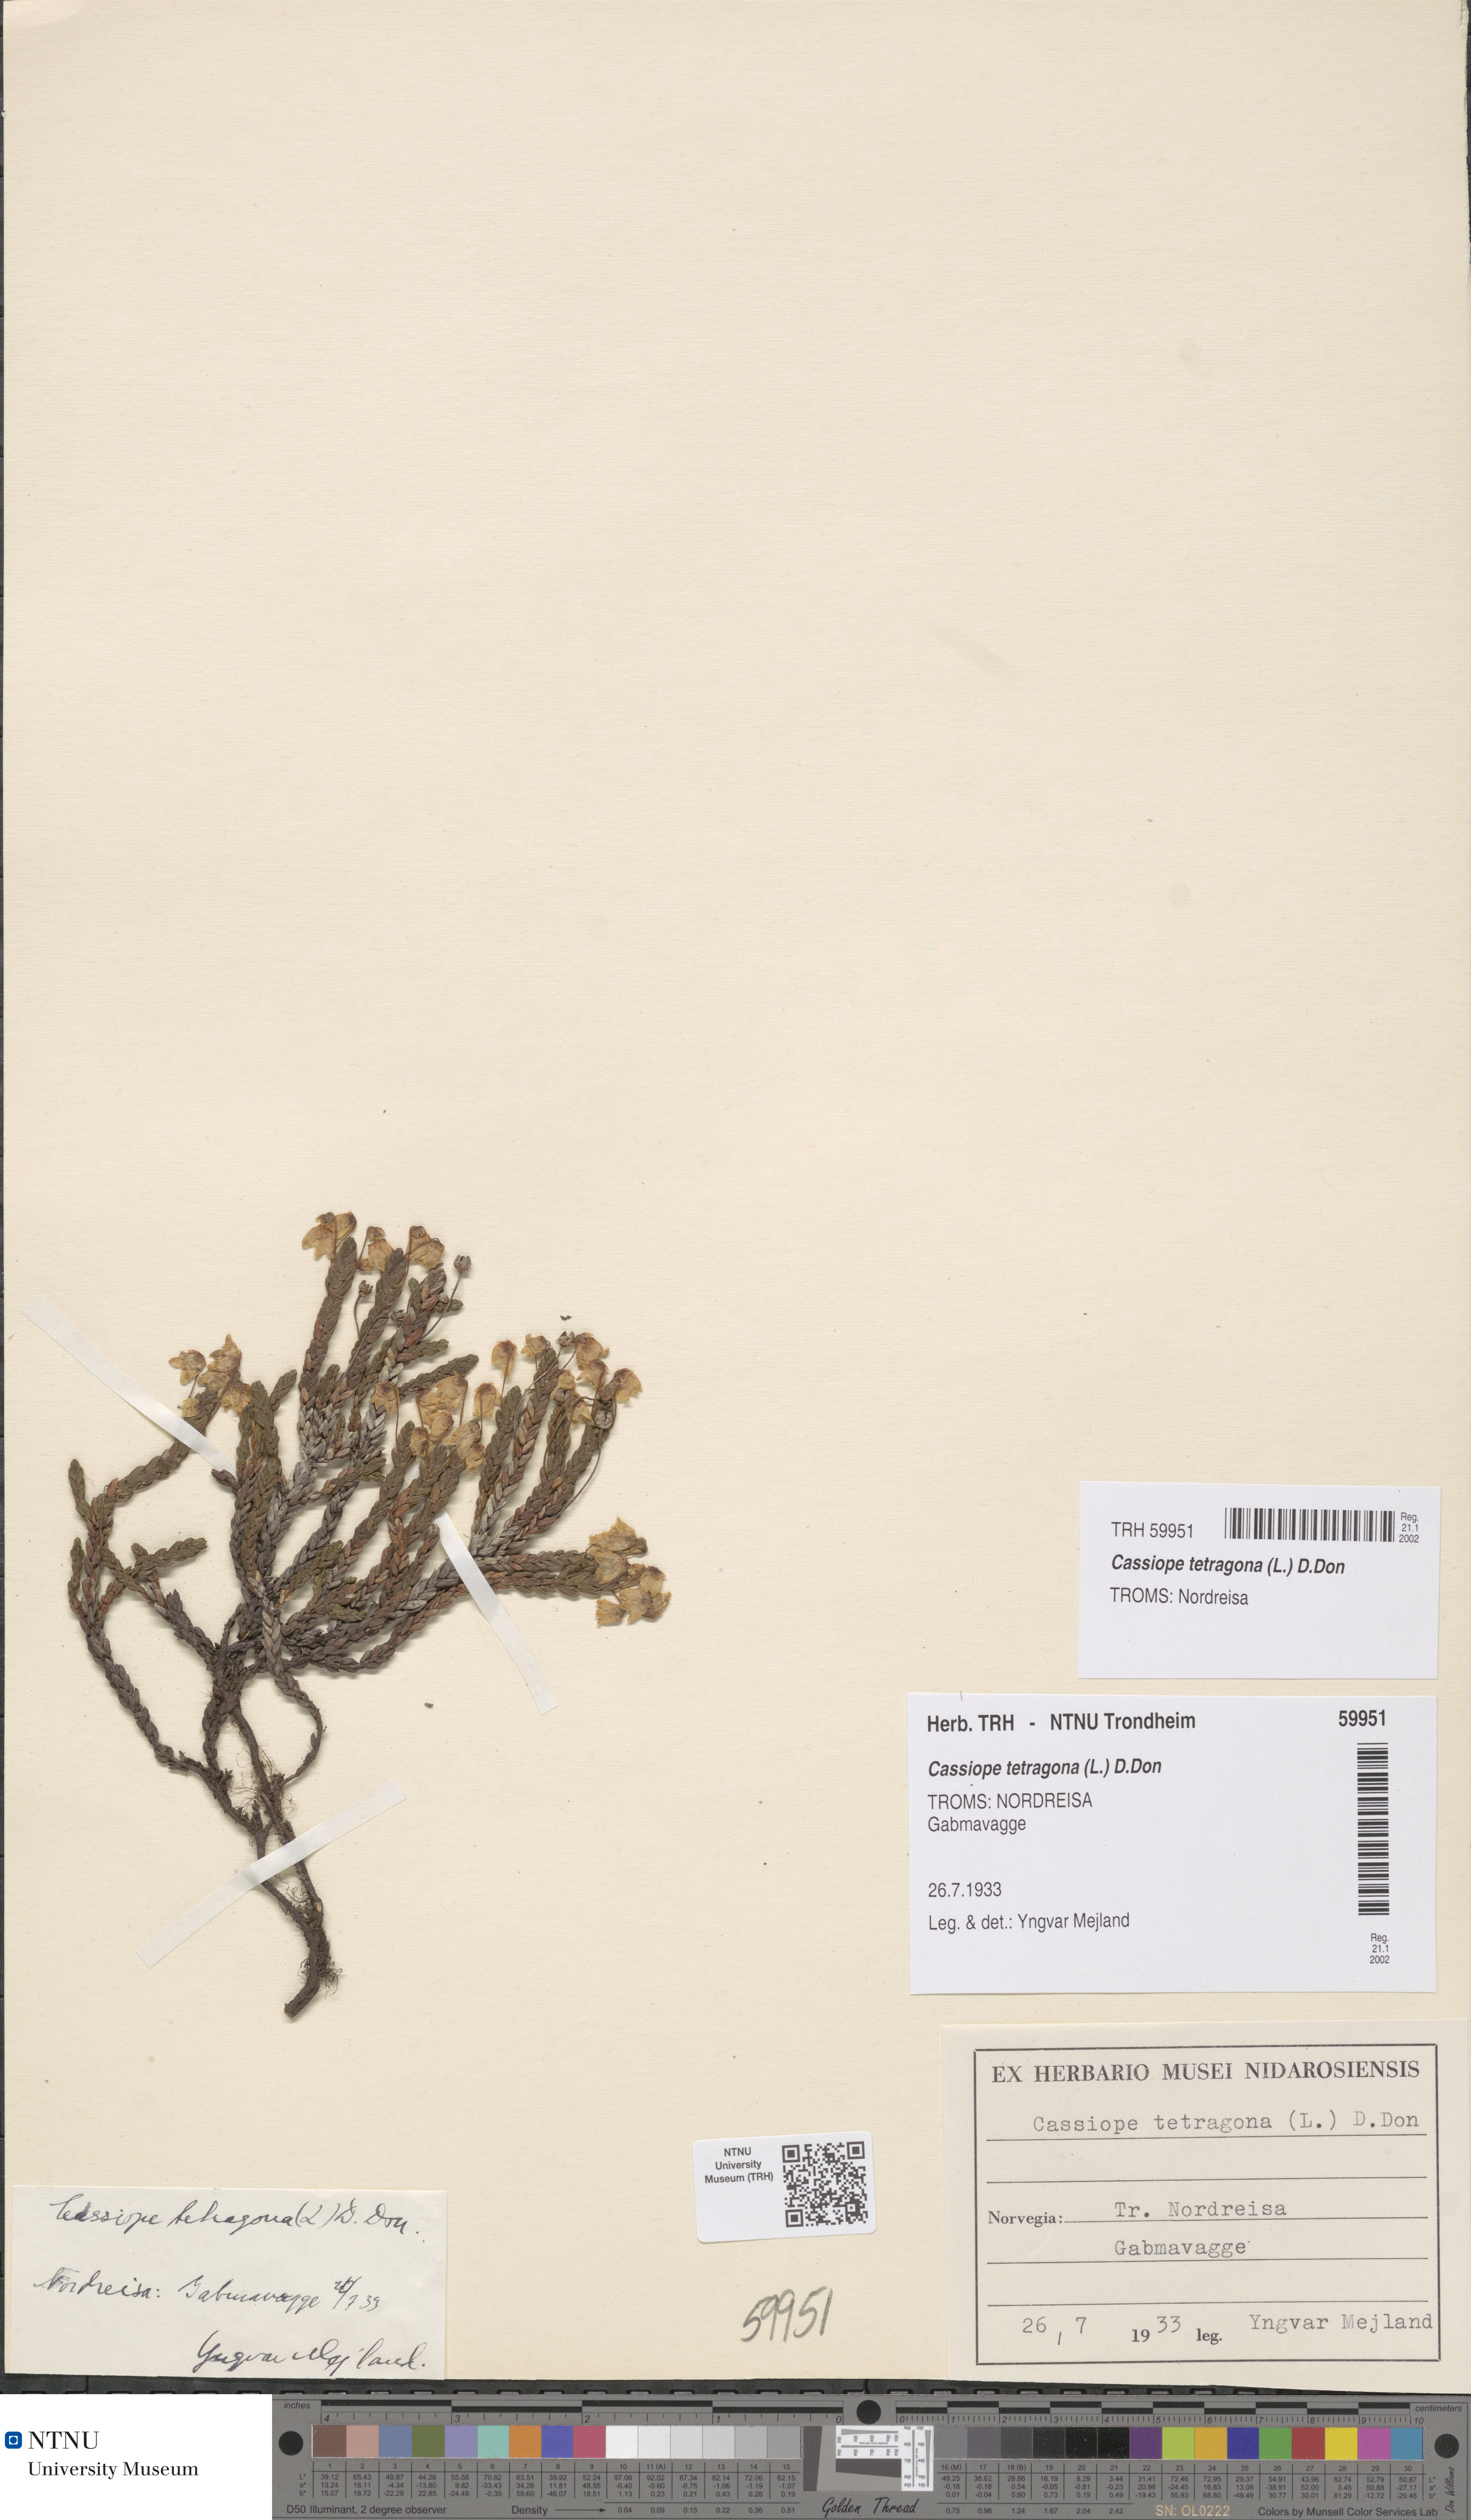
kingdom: Plantae
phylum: Tracheophyta
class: Magnoliopsida
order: Ericales
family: Ericaceae
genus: Cassiope
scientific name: Cassiope tetragona
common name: Arctic bell heather
